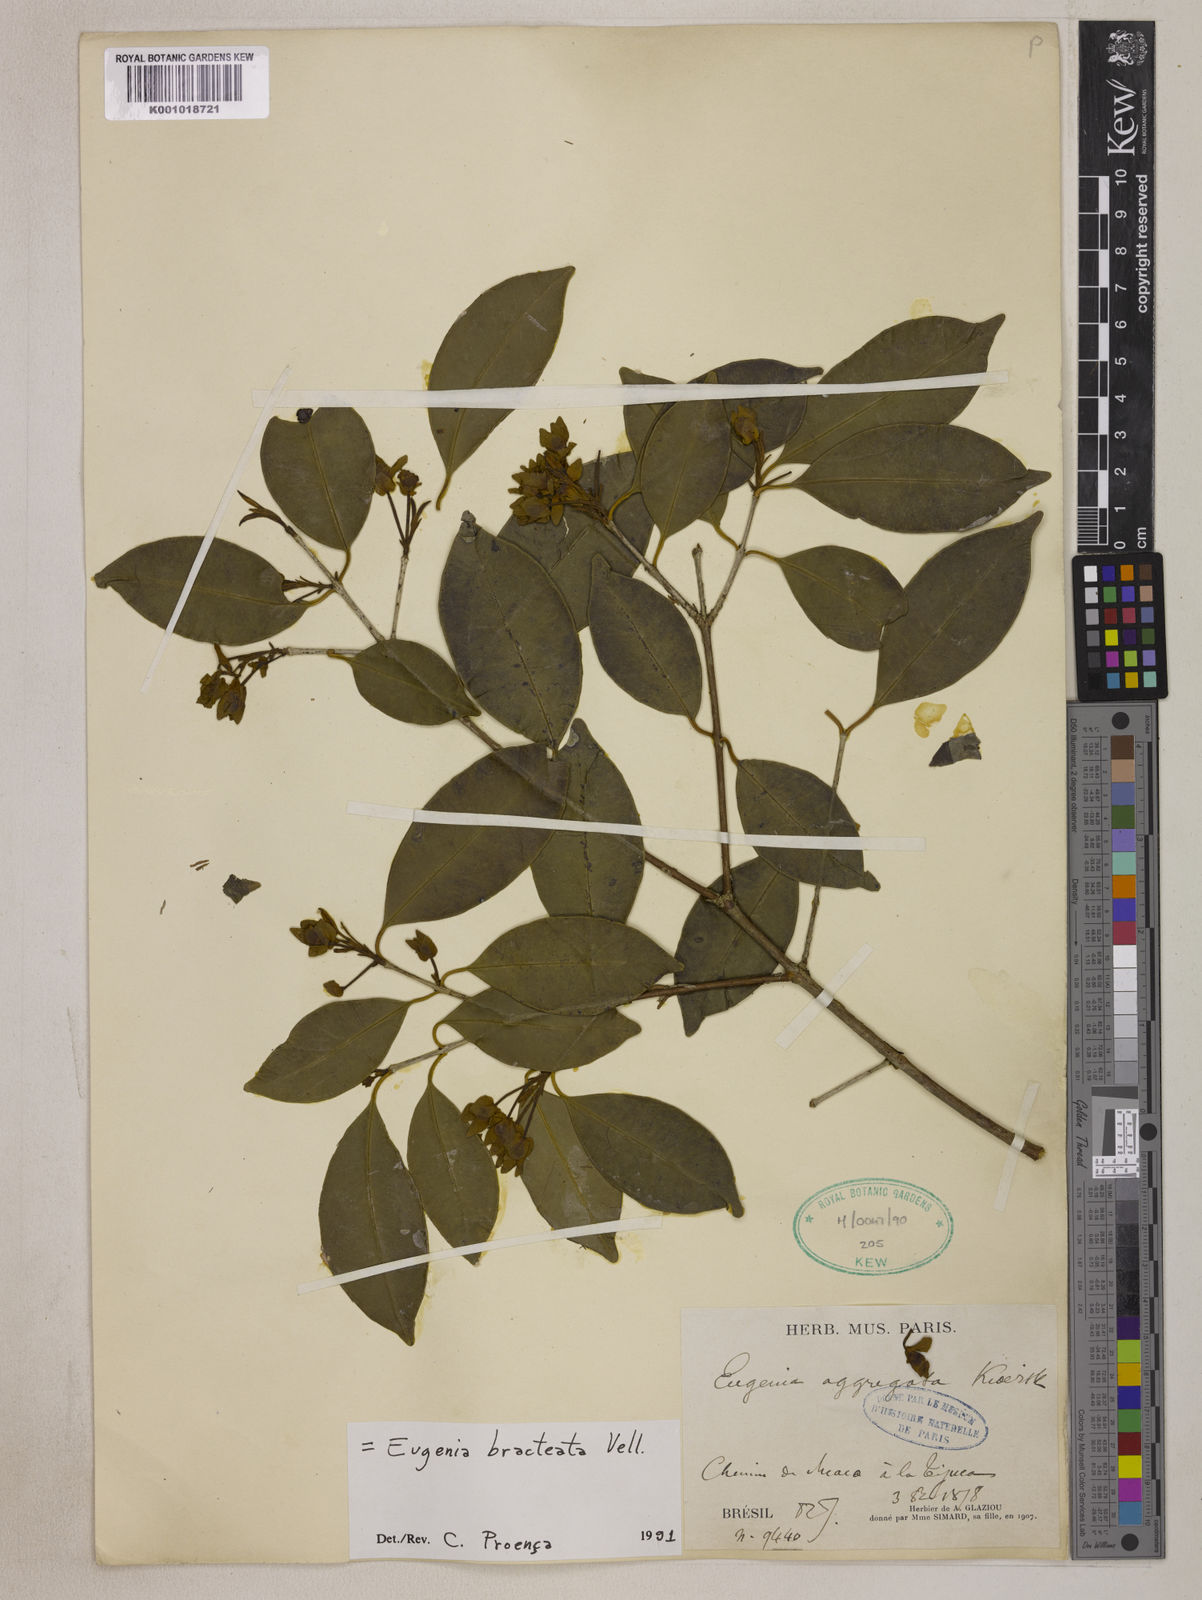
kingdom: Plantae
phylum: Tracheophyta
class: Magnoliopsida
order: Myrtales
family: Myrtaceae
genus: Eugenia
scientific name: Eugenia involucrata
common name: Cherry-of-the-rio grande
